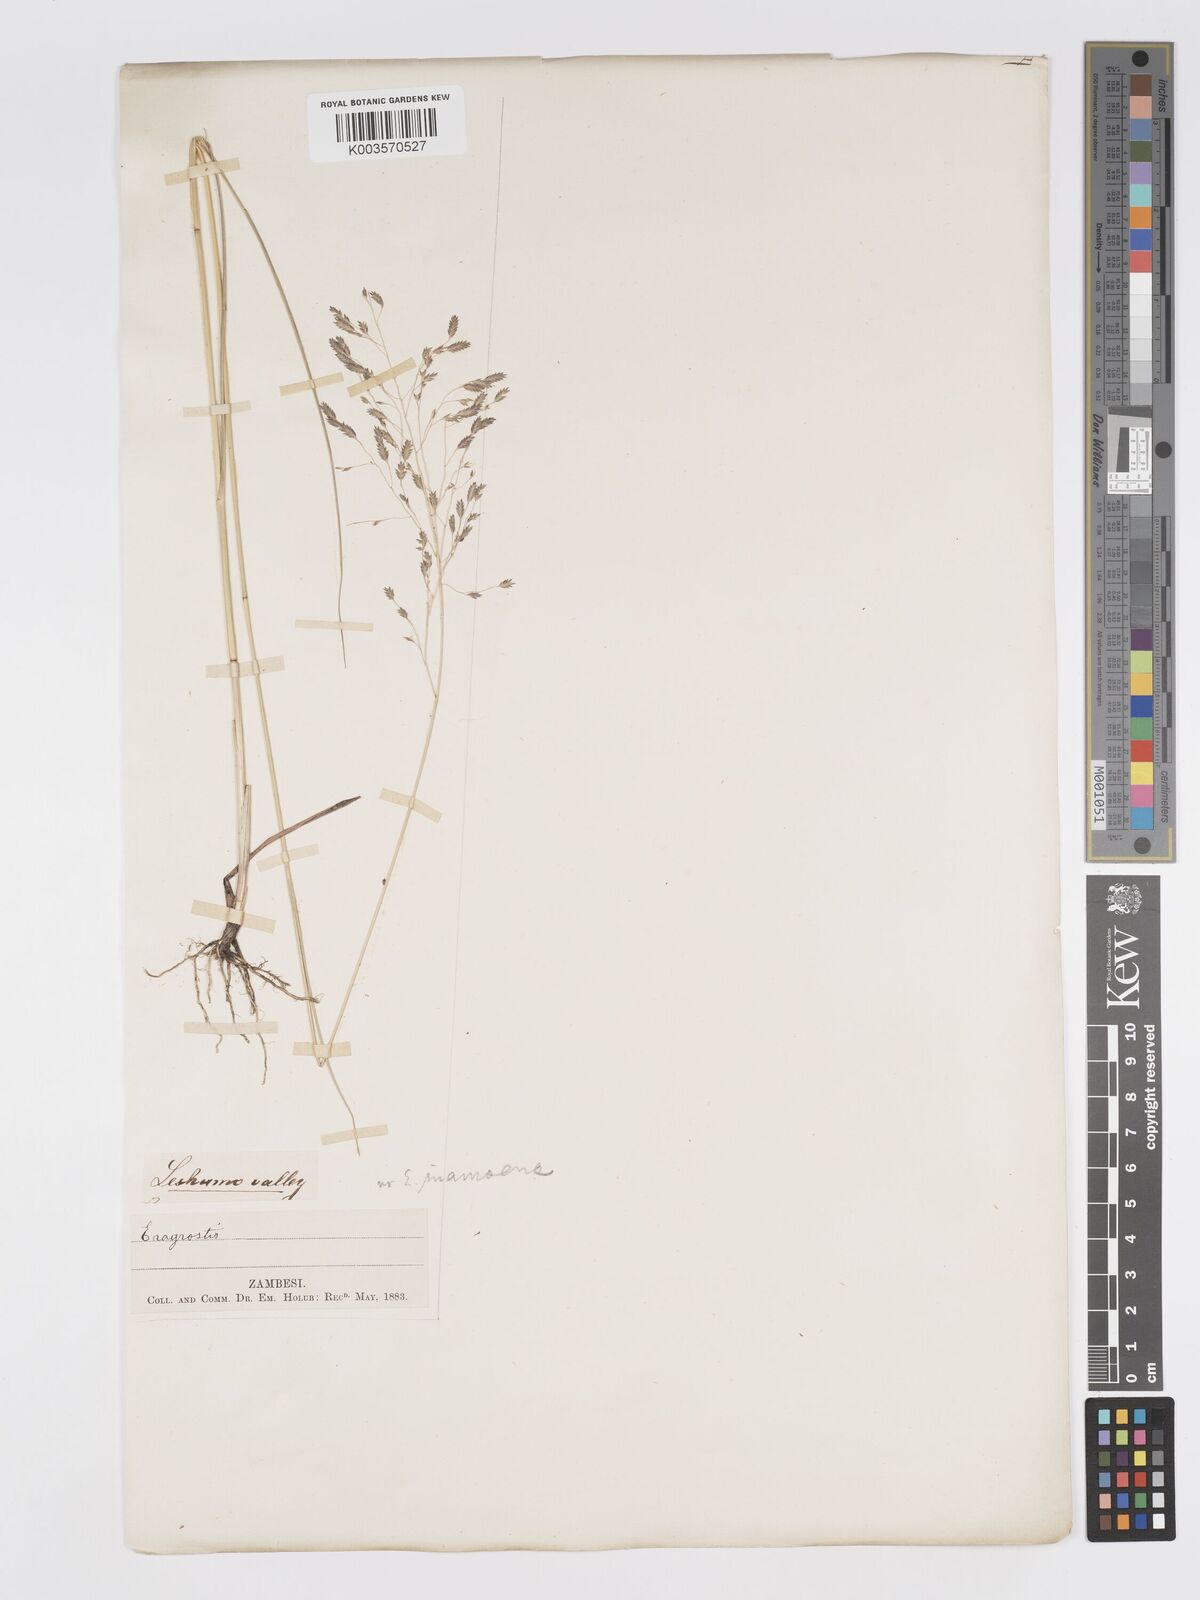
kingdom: Plantae
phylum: Tracheophyta
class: Liliopsida
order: Poales
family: Poaceae
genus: Eragrostis
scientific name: Eragrostis inamoena
